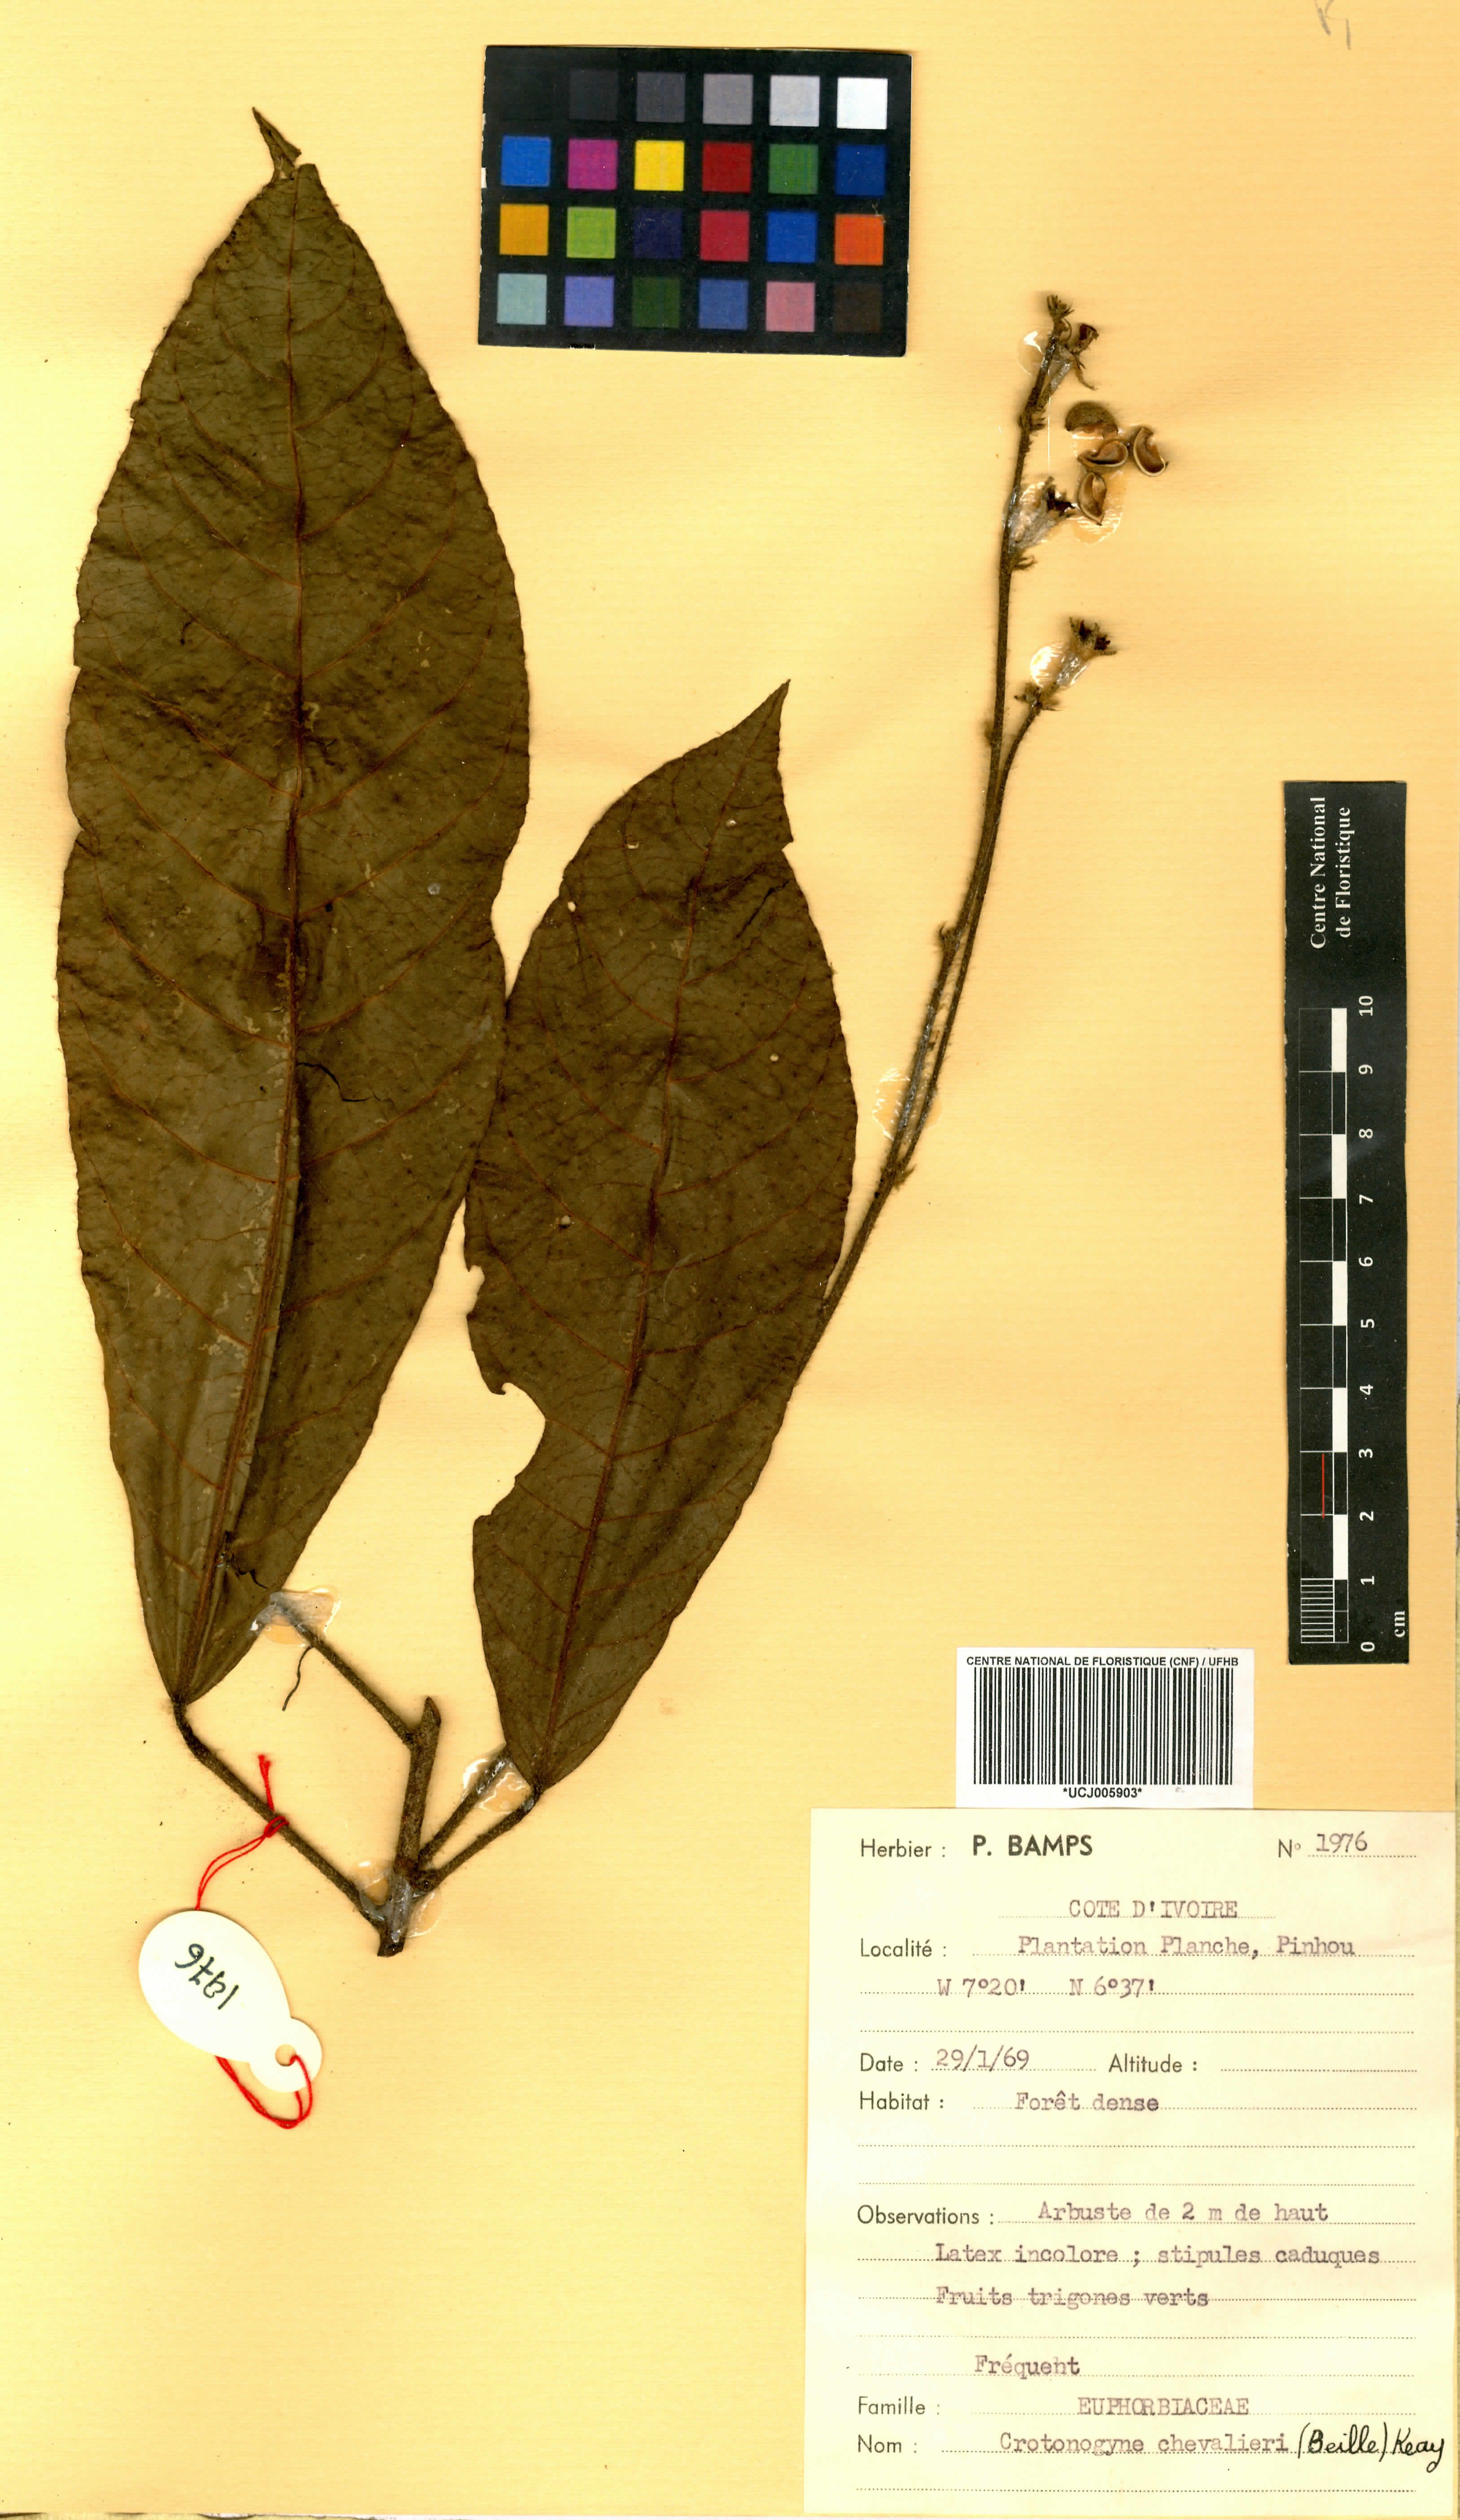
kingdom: Plantae
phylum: Tracheophyta
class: Magnoliopsida
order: Malpighiales
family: Euphorbiaceae
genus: Crotonogyne
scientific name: Crotonogyne caterviflora
